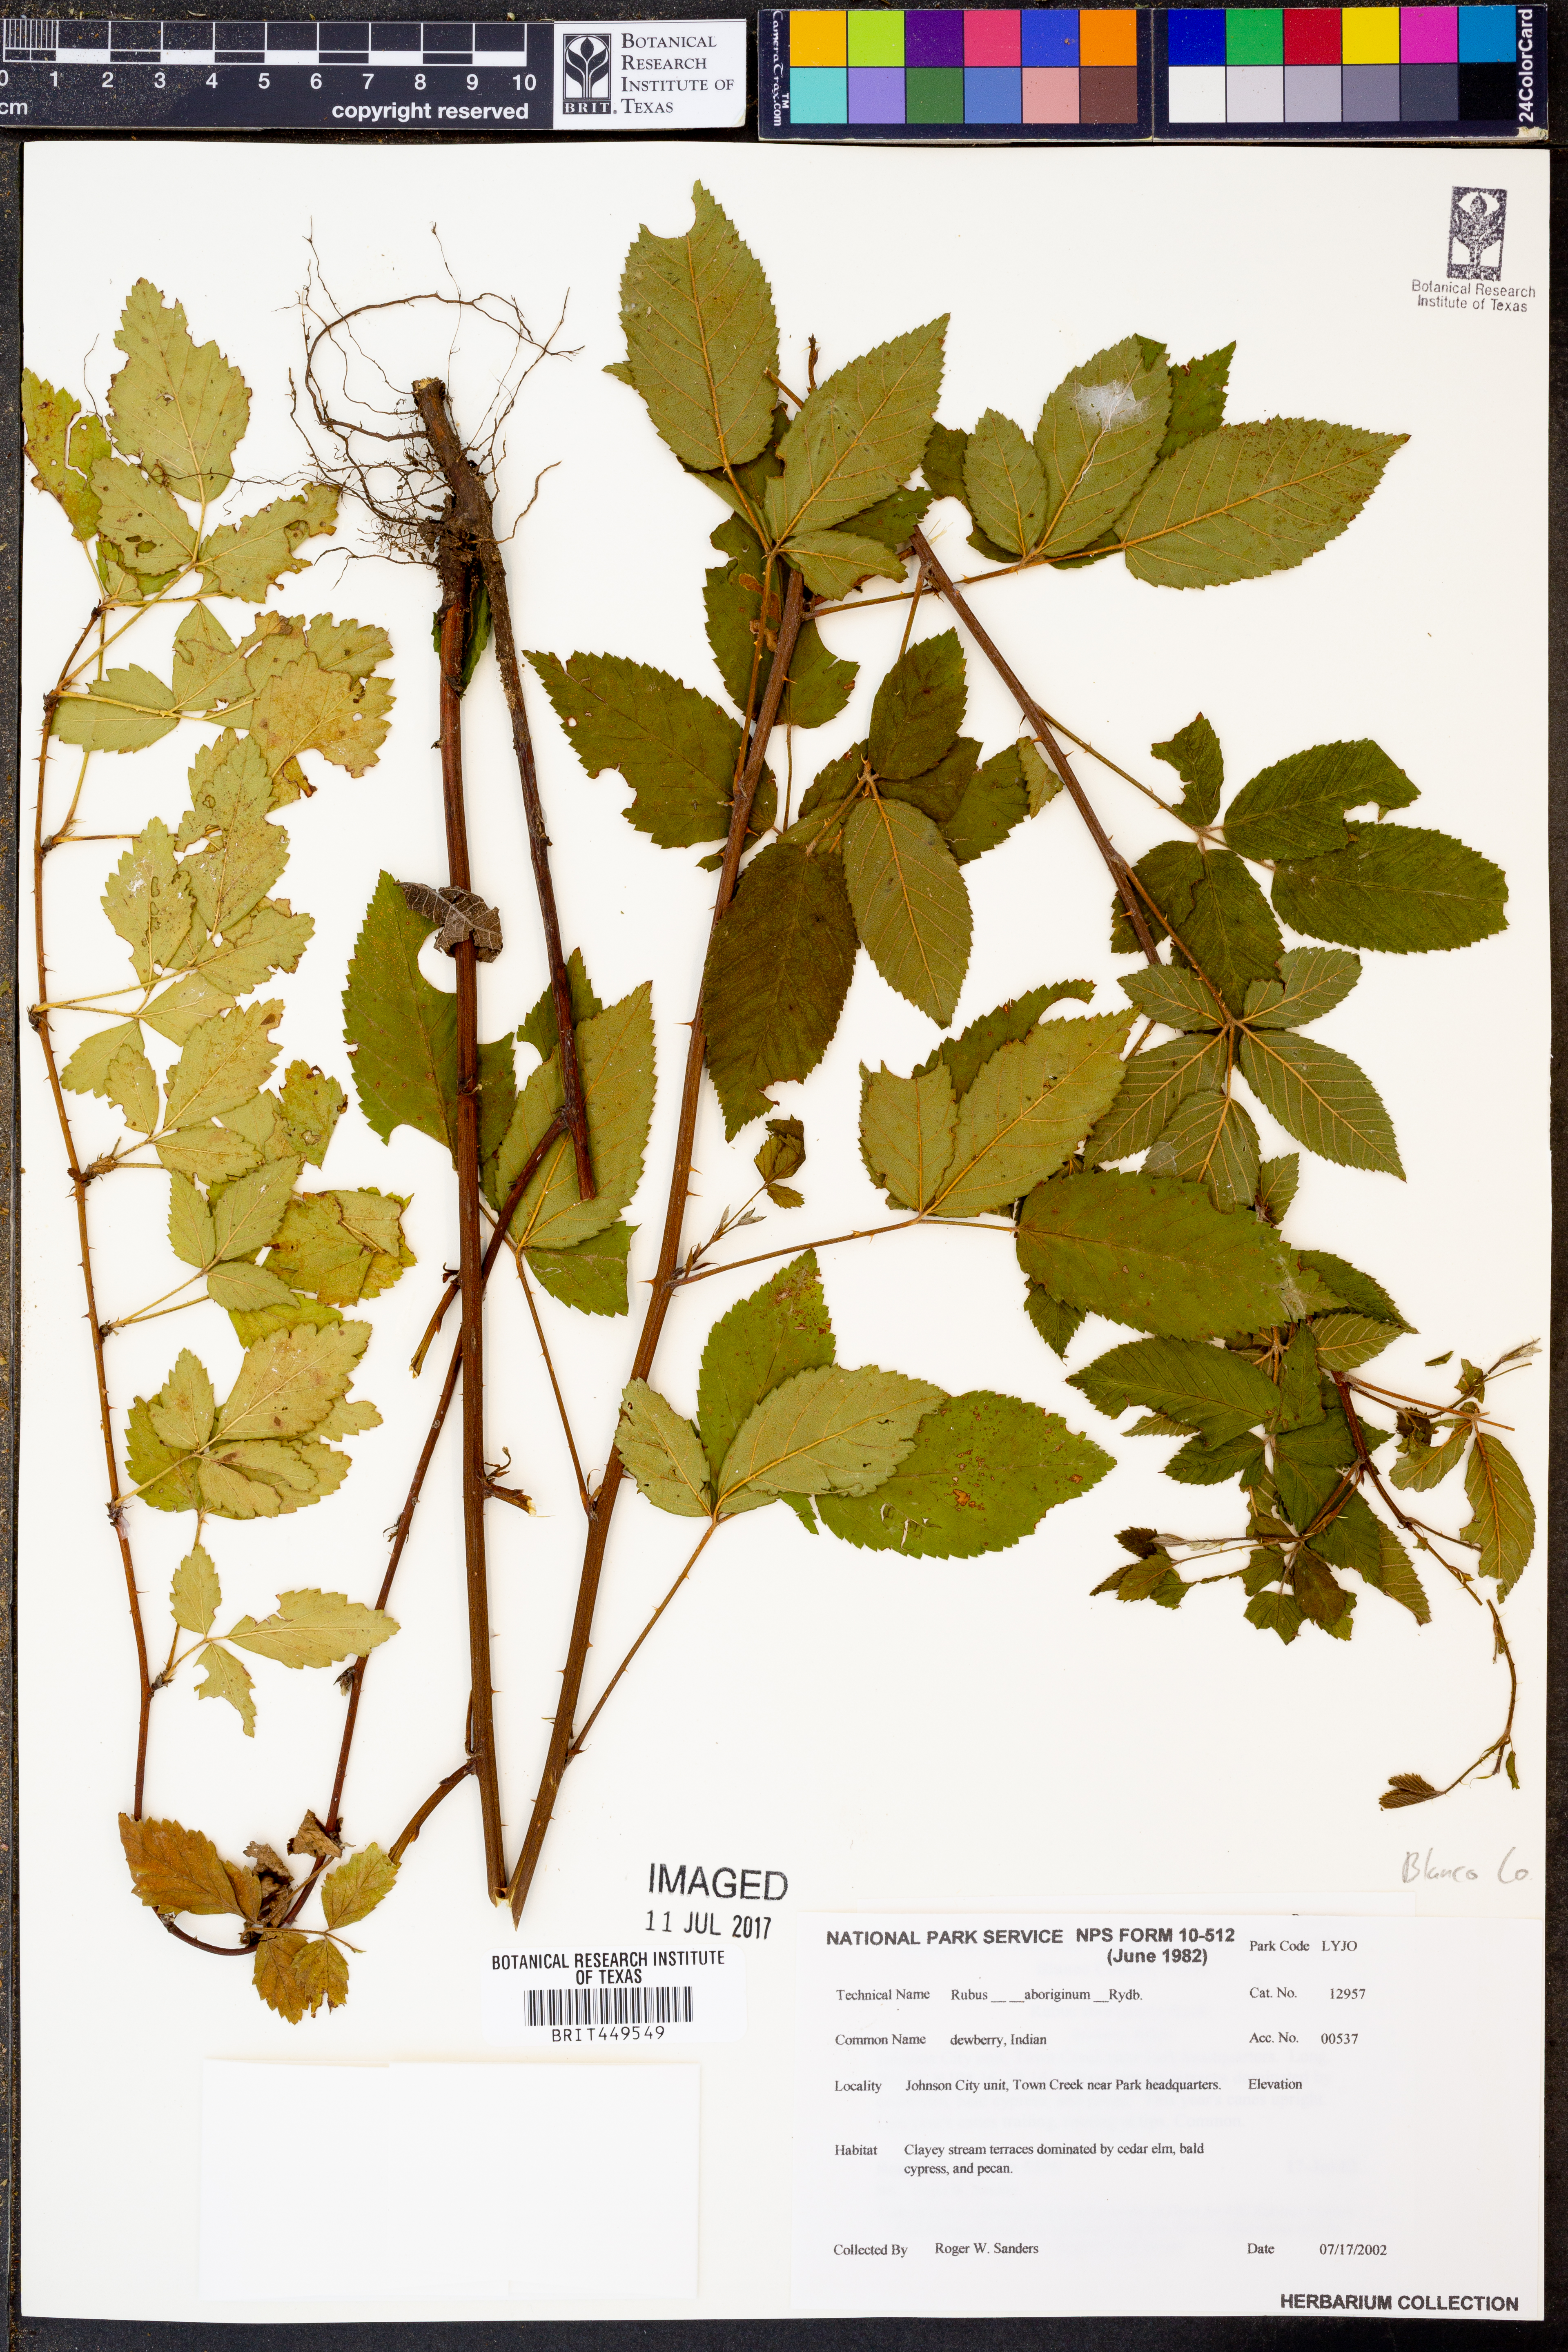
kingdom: Plantae
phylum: Tracheophyta
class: Magnoliopsida
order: Rosales
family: Rosaceae
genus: Rubus
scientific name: Rubus aboriginum
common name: Mayes dewberry
